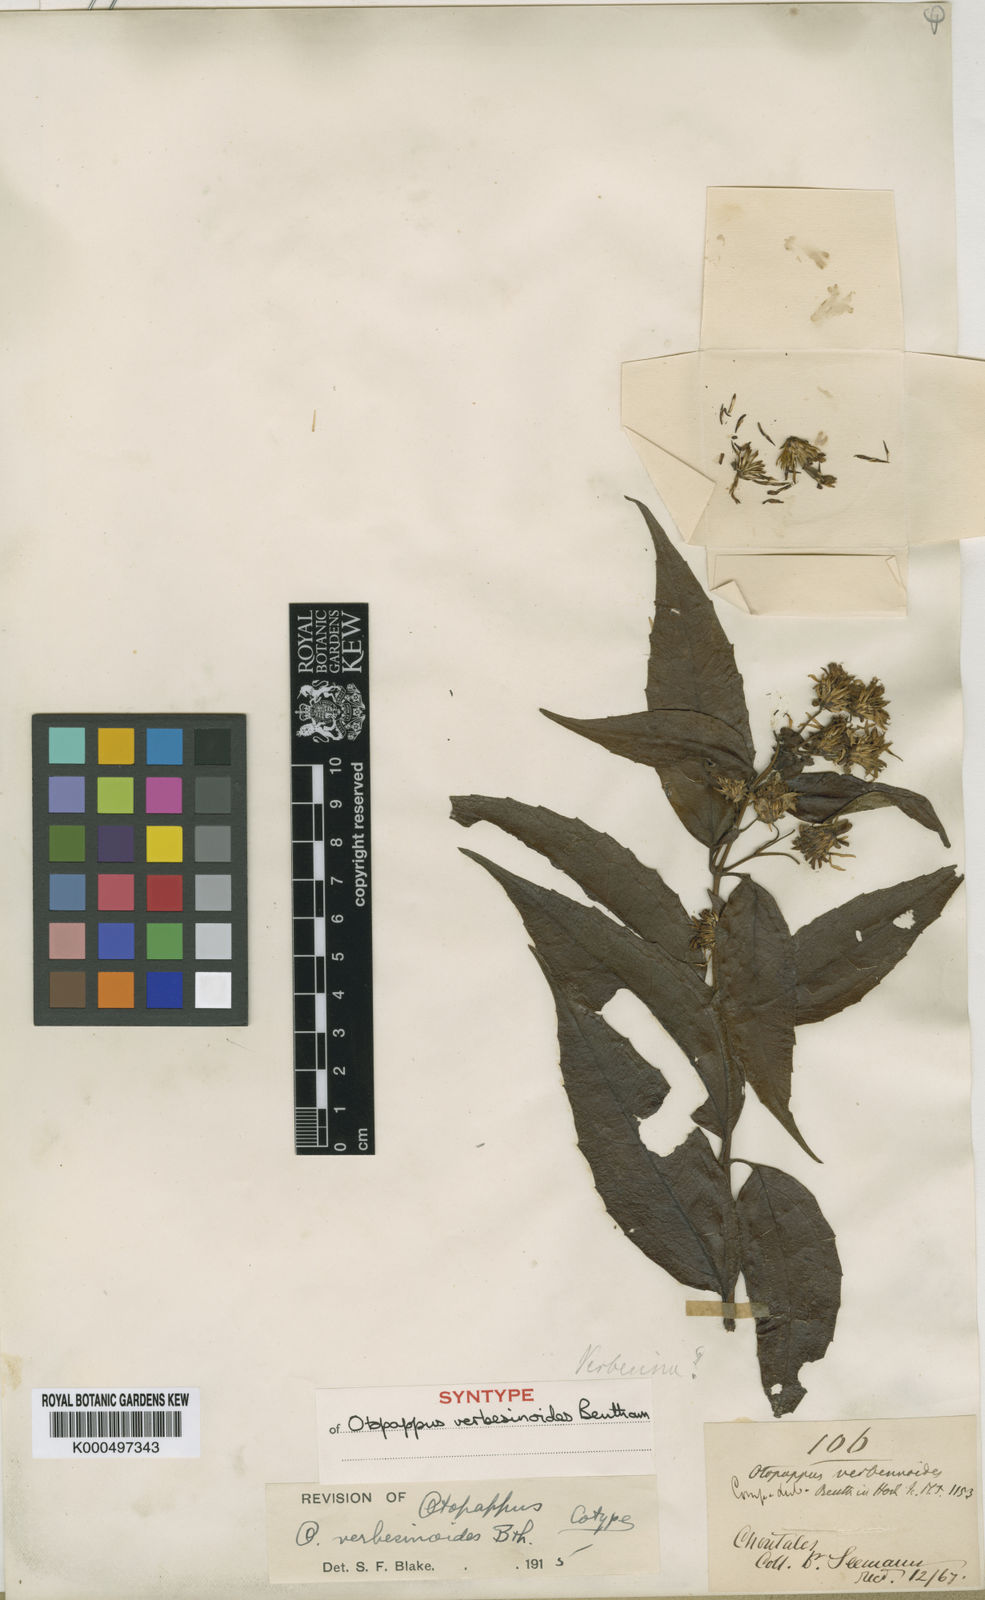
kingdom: Plantae
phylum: Tracheophyta
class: Magnoliopsida
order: Asterales
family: Asteraceae
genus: Otopappus
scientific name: Otopappus verbesinoides
